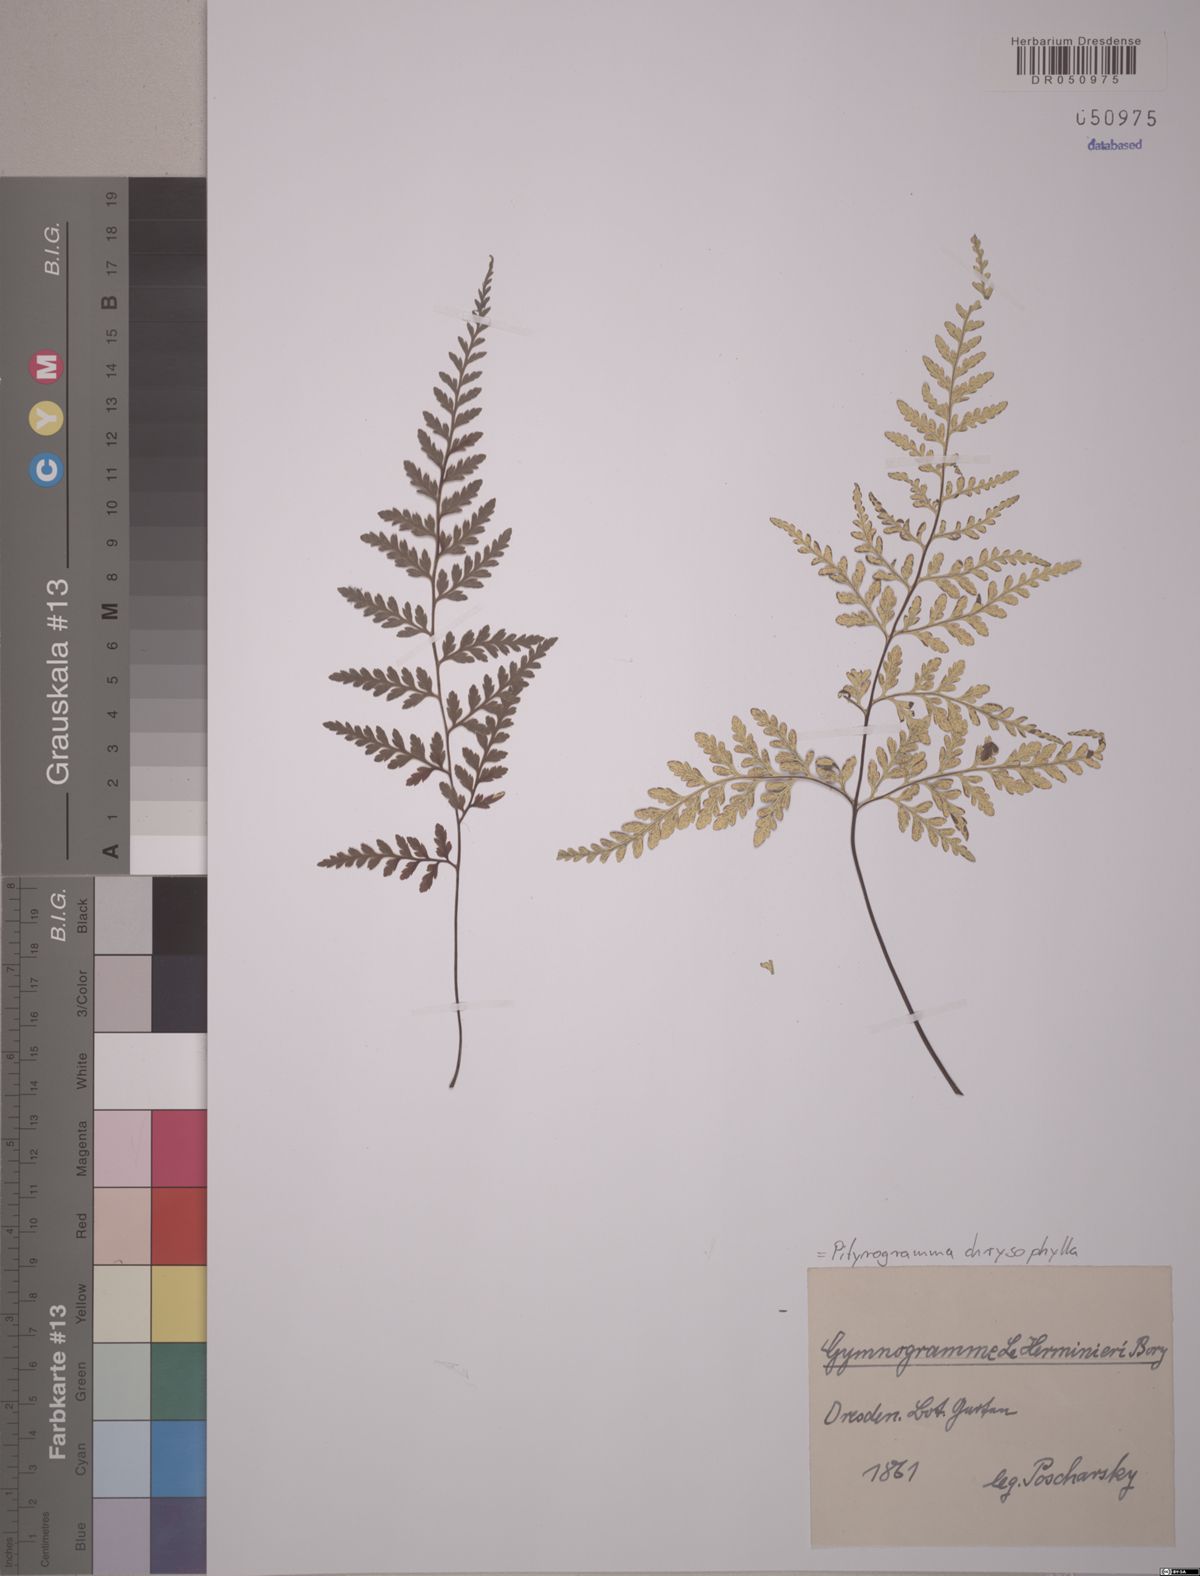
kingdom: Plantae
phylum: Tracheophyta
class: Polypodiopsida
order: Polypodiales
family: Pteridaceae
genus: Pityrogramma
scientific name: Pityrogramma chrysophylla
